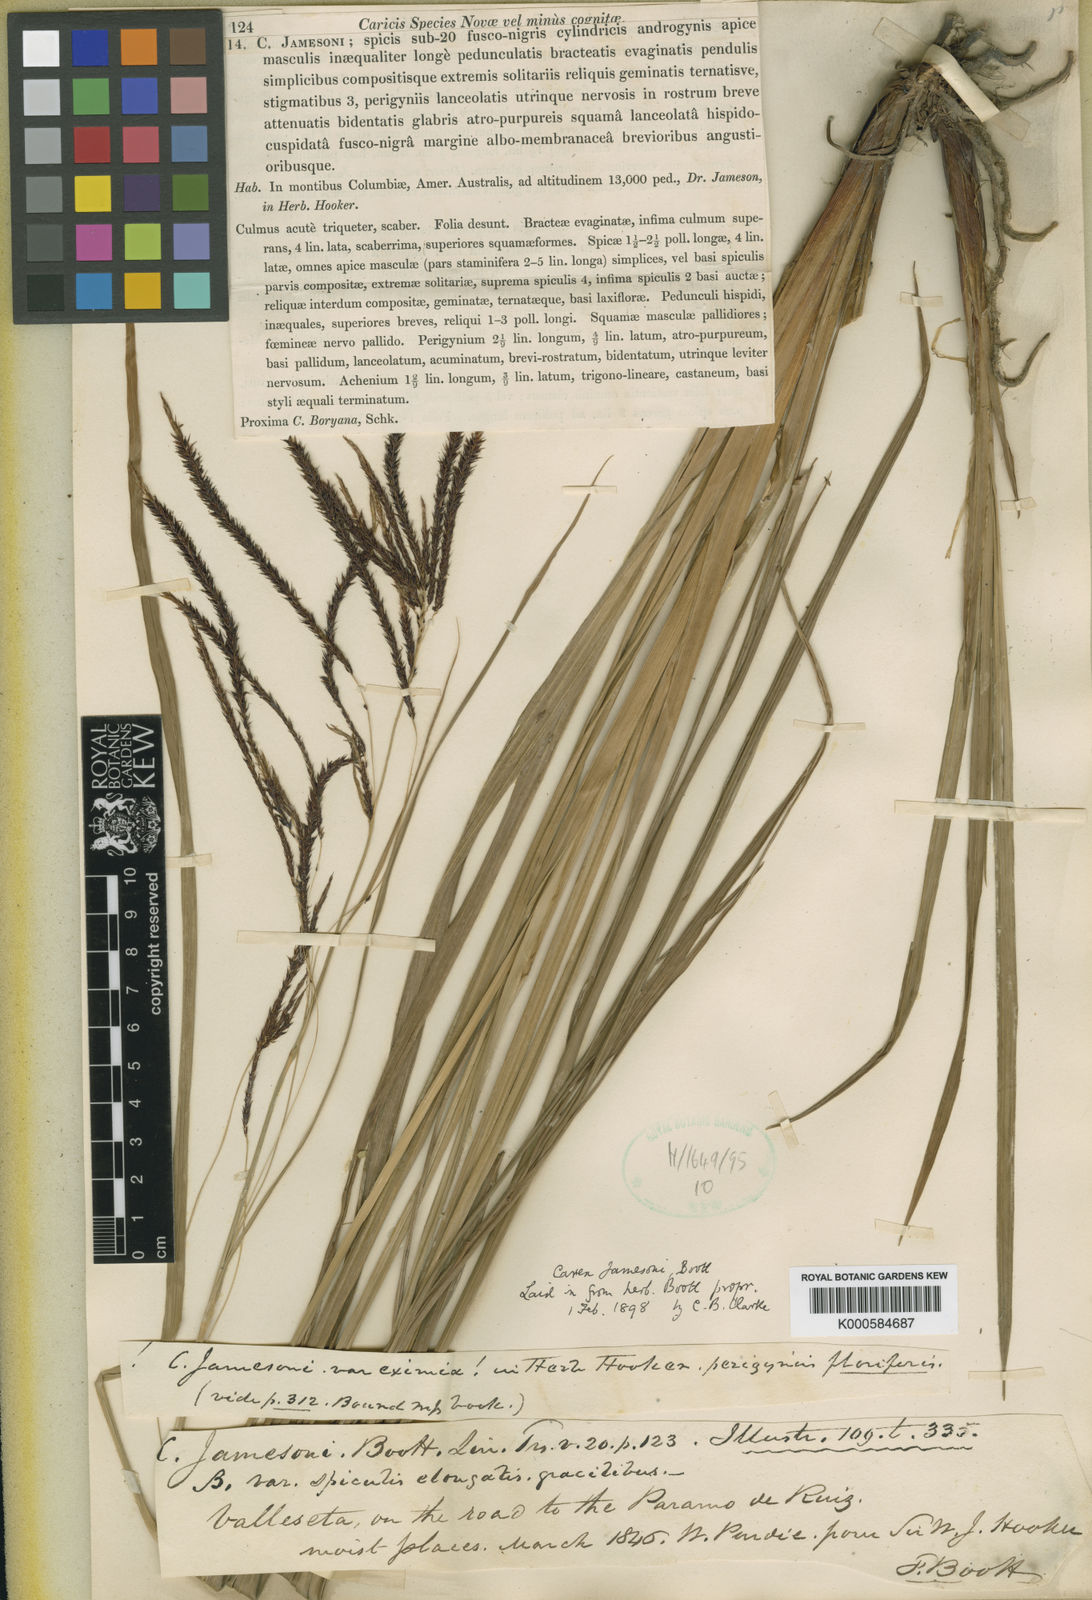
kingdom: Plantae
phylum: Tracheophyta
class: Liliopsida
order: Poales
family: Cyperaceae
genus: Carex
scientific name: Carex jamesonii
